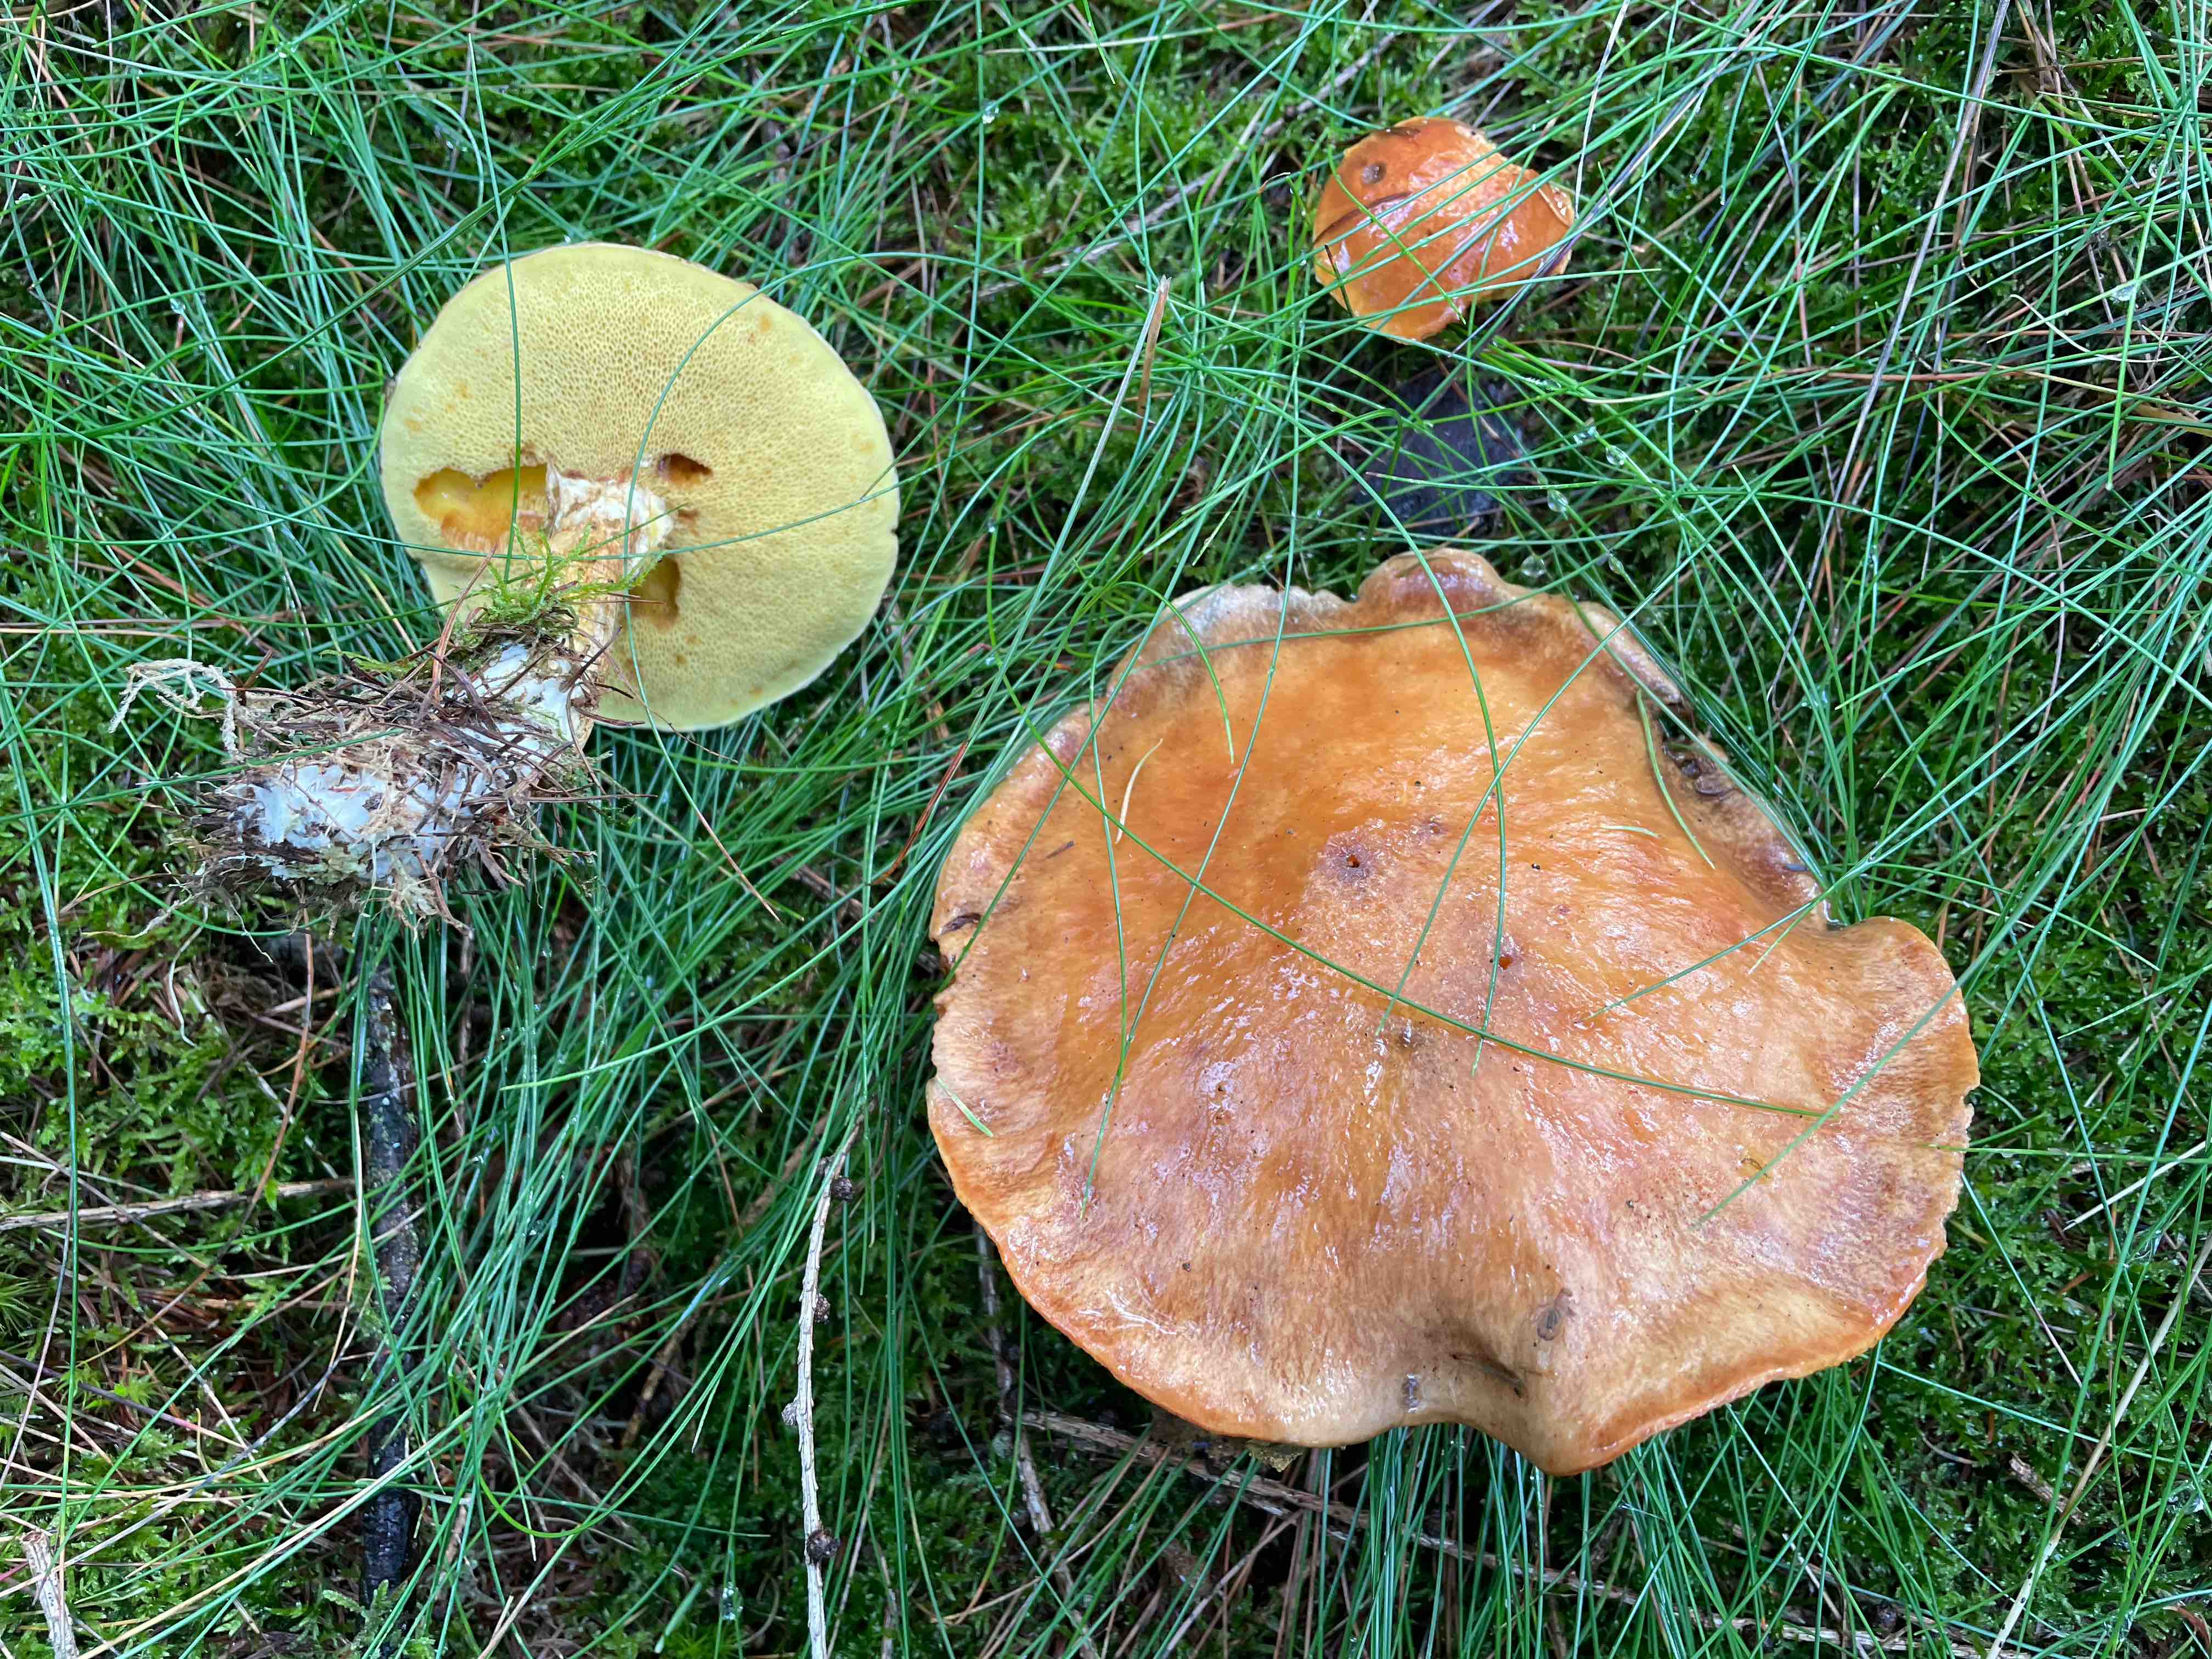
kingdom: Fungi
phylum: Basidiomycota
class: Agaricomycetes
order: Boletales
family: Suillaceae
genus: Suillus
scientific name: Suillus grevillei
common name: lærke-slimrørhat
